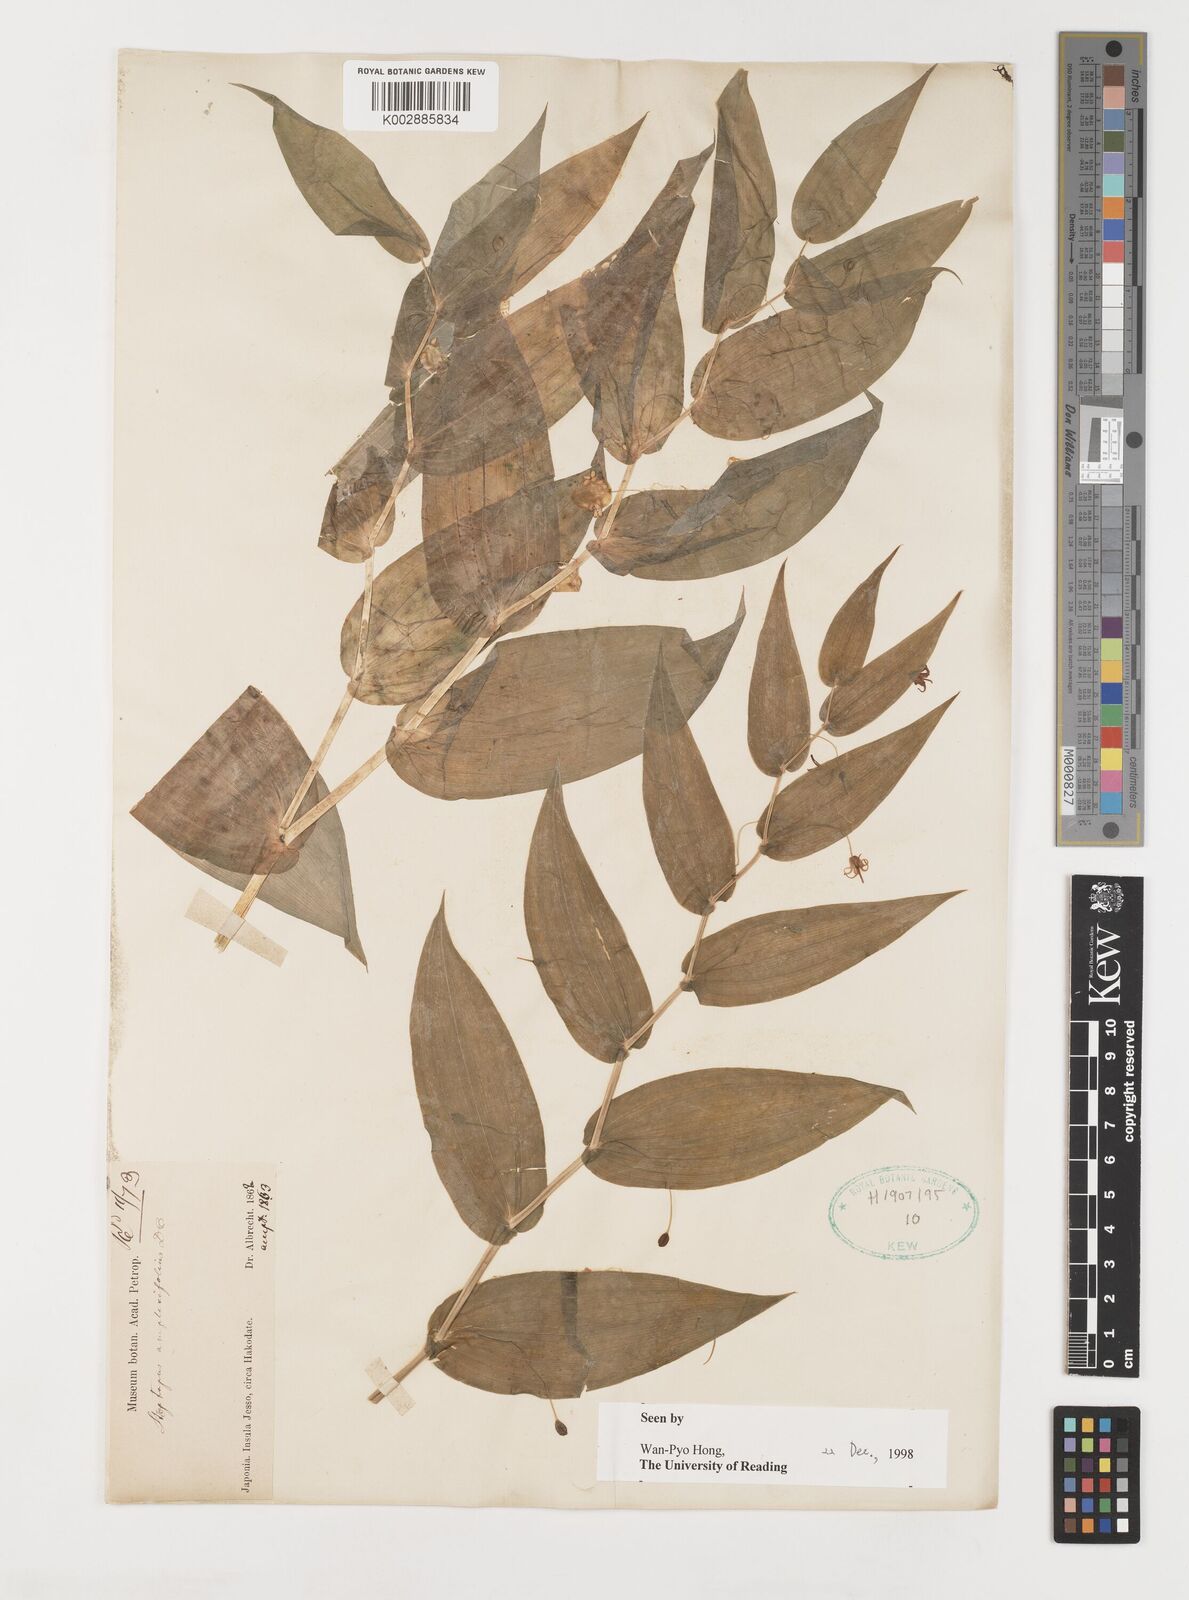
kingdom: Plantae
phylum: Tracheophyta
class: Liliopsida
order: Liliales
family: Liliaceae
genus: Streptopus
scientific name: Streptopus amplexifolius
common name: Clasp twisted stalk
